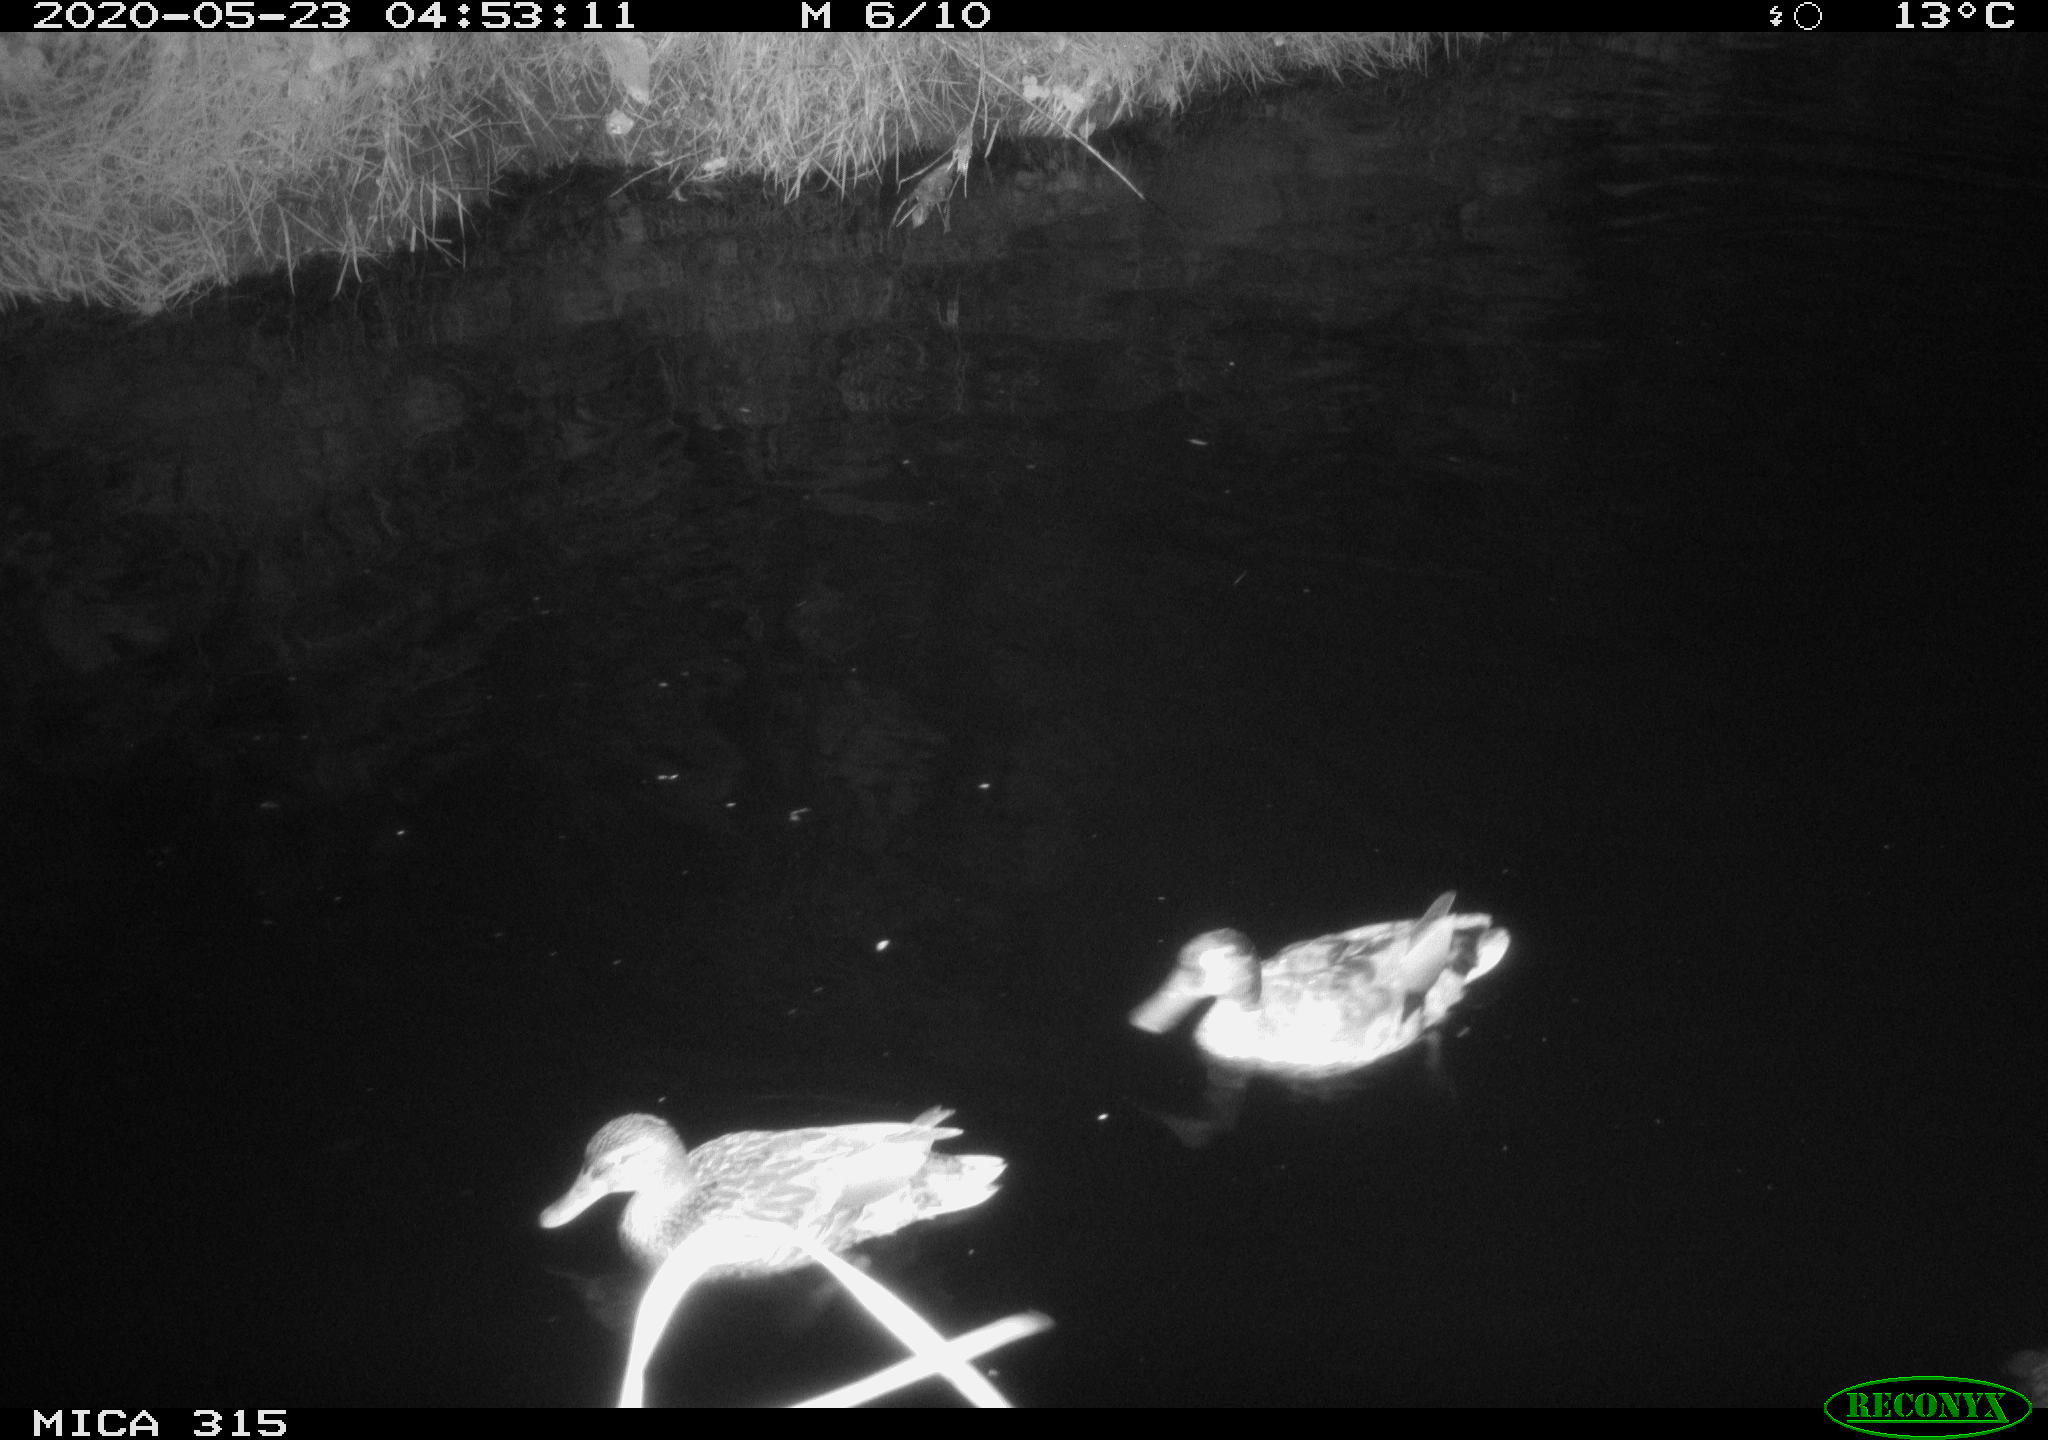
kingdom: Animalia
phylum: Chordata
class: Aves
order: Anseriformes
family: Anatidae
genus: Anas
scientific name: Anas platyrhynchos
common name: Mallard
